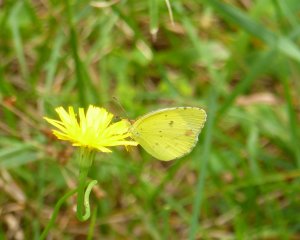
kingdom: Animalia
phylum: Arthropoda
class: Insecta
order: Lepidoptera
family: Pieridae
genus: Pyrisitia
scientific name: Pyrisitia lisa
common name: Little Yellow
